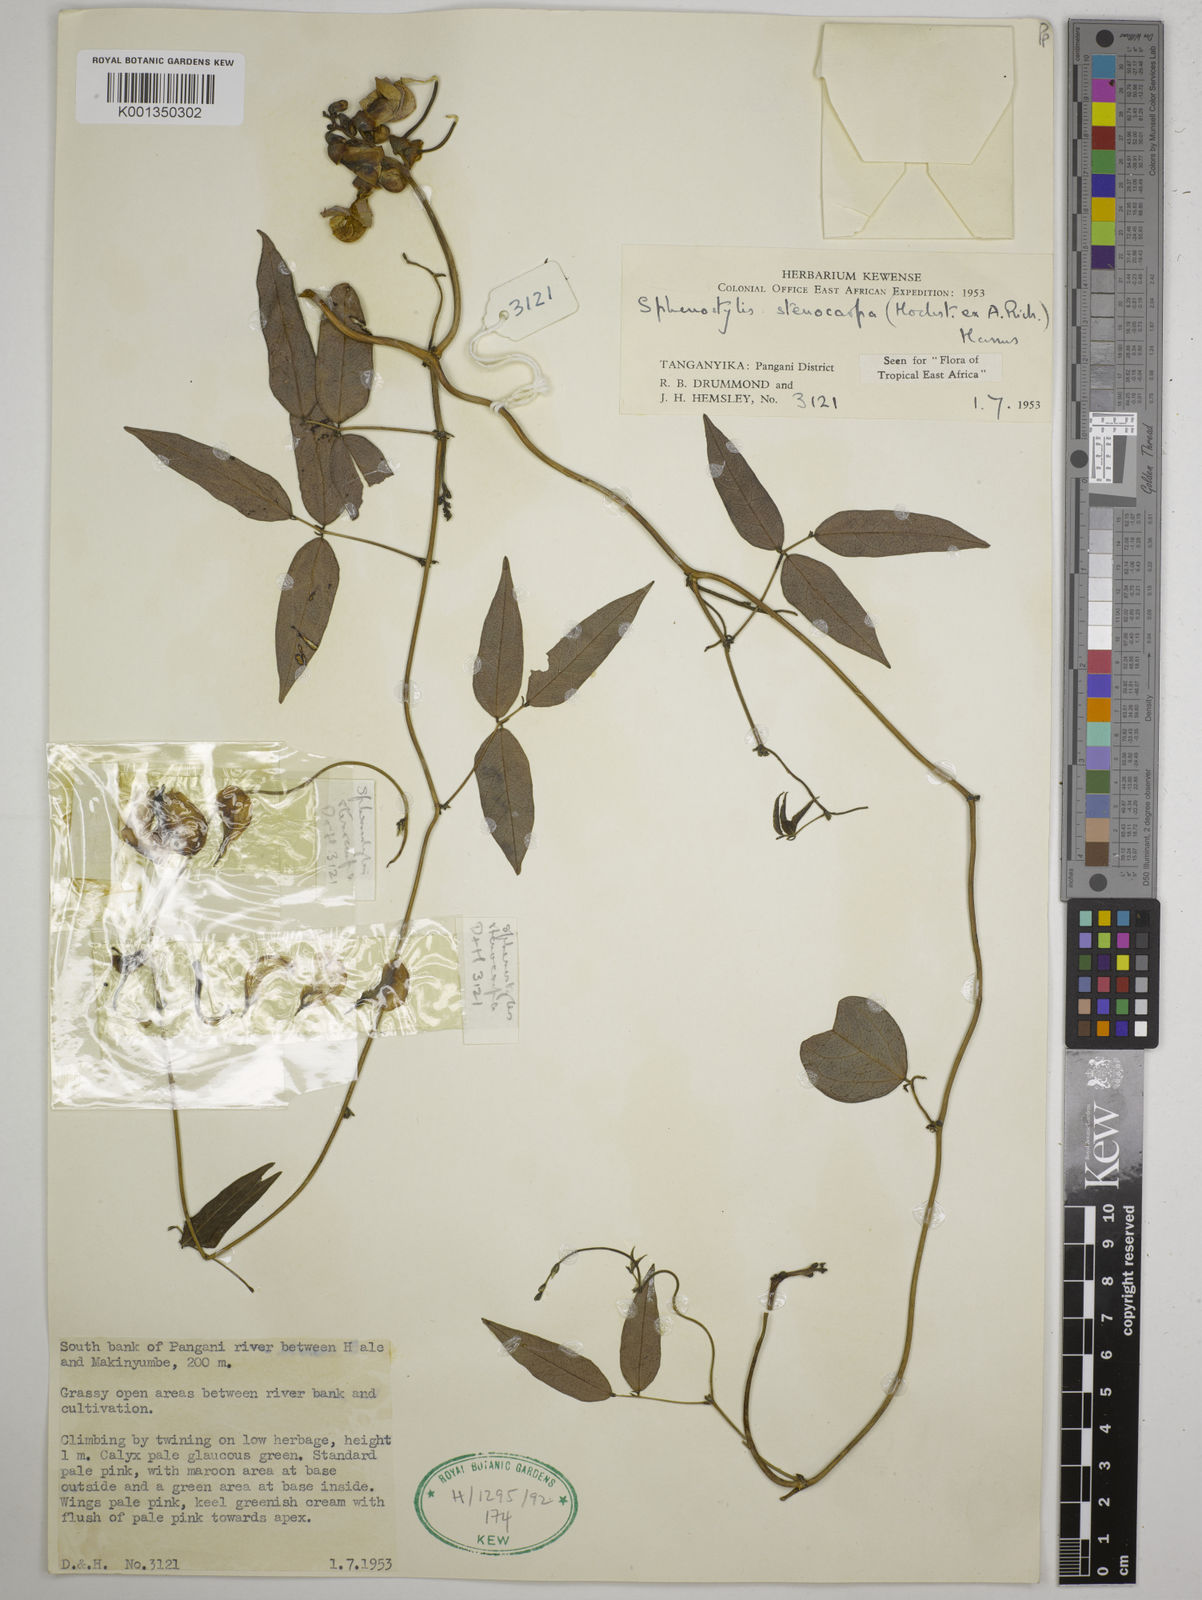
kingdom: Plantae
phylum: Tracheophyta
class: Magnoliopsida
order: Fabales
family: Fabaceae
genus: Sphenostylis
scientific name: Sphenostylis stenocarpa
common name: Yam-pea
